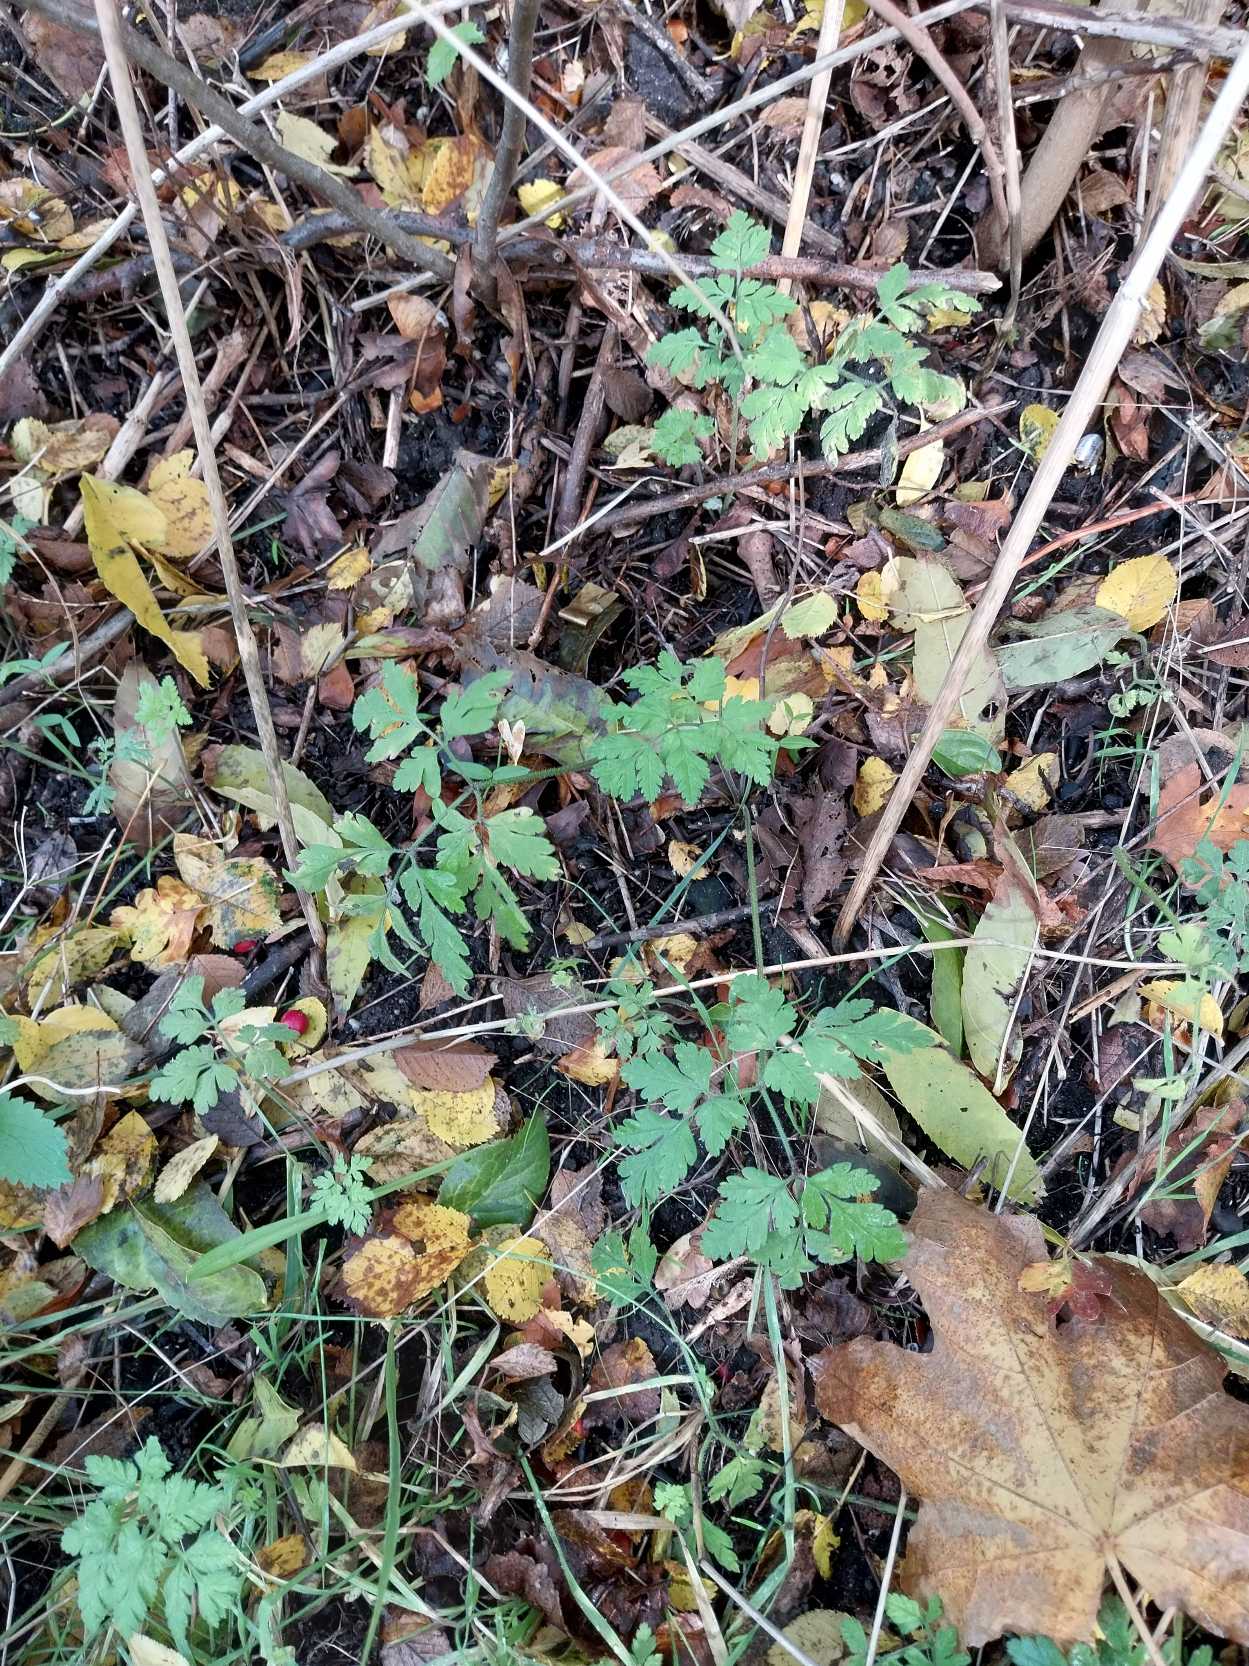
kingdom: Plantae
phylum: Tracheophyta
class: Magnoliopsida
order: Apiales
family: Apiaceae
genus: Chaerophyllum
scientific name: Chaerophyllum temulum
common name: Almindelig hulsvøb
